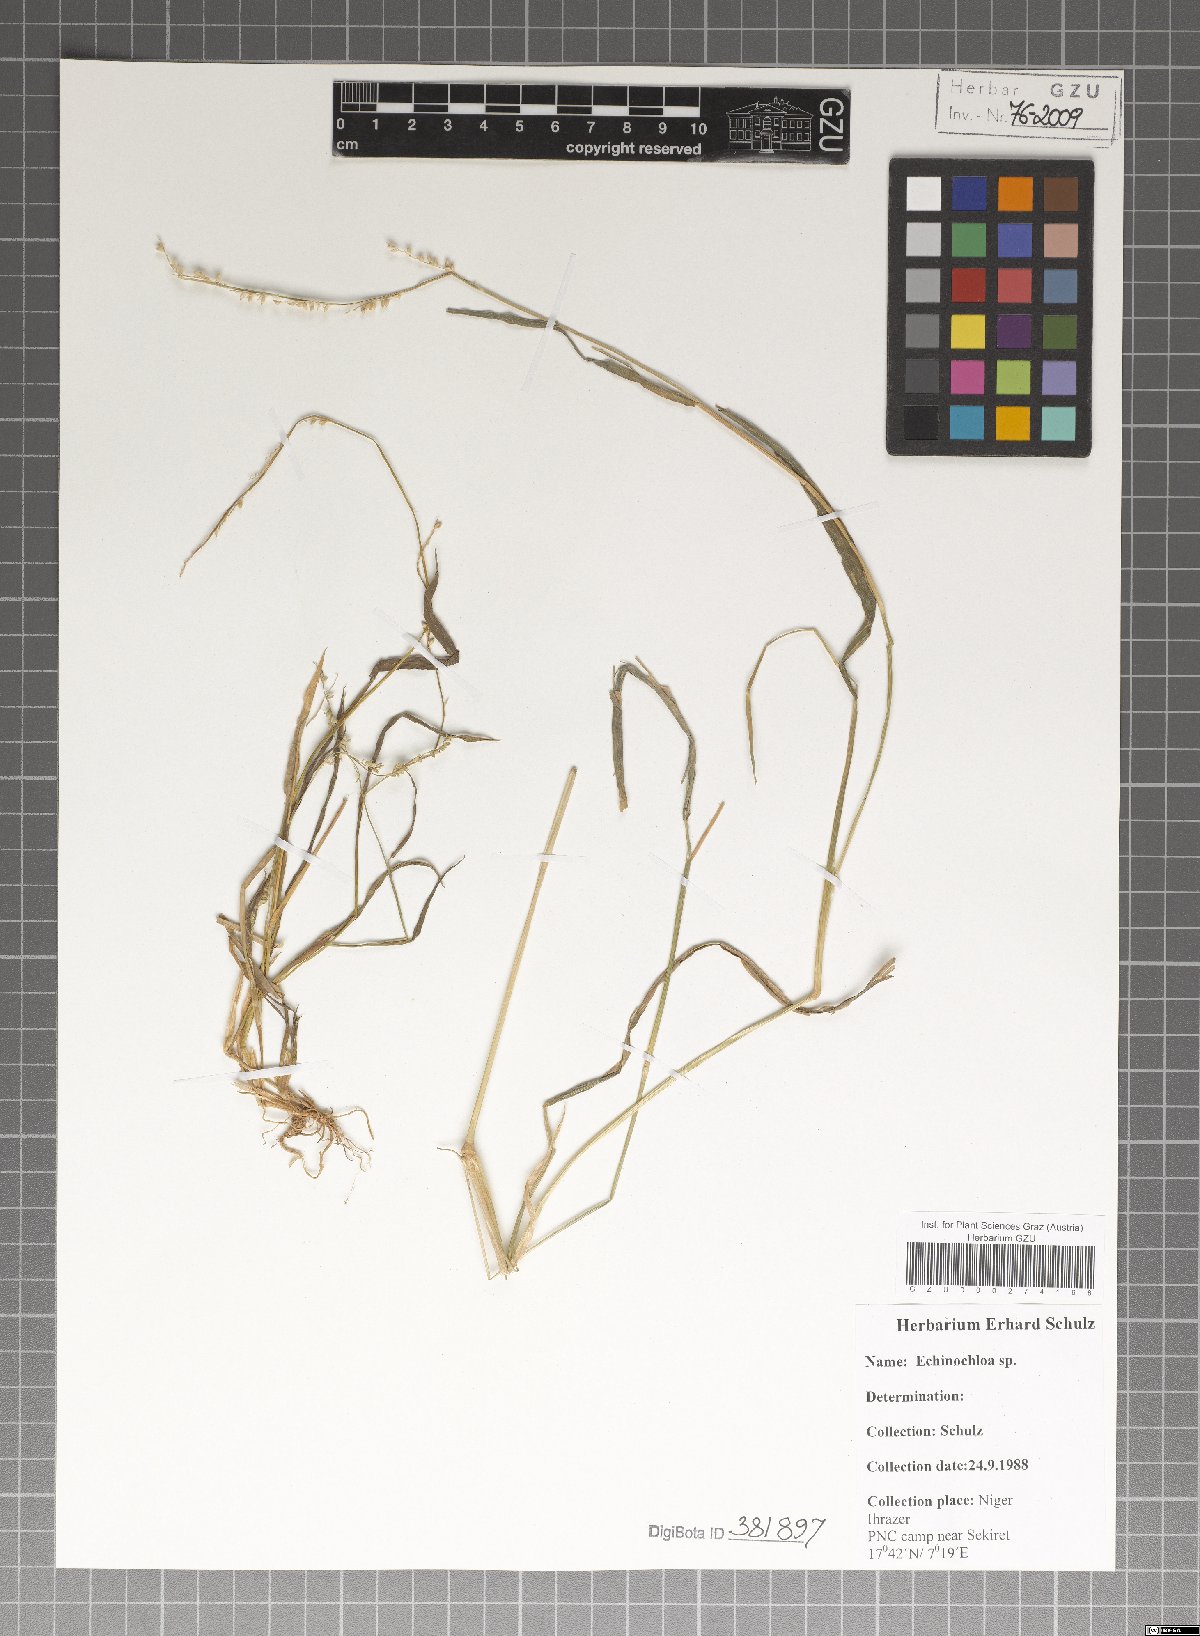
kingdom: Plantae
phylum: Tracheophyta
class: Liliopsida
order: Poales
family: Poaceae
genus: Echinochloa
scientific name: Echinochloa
